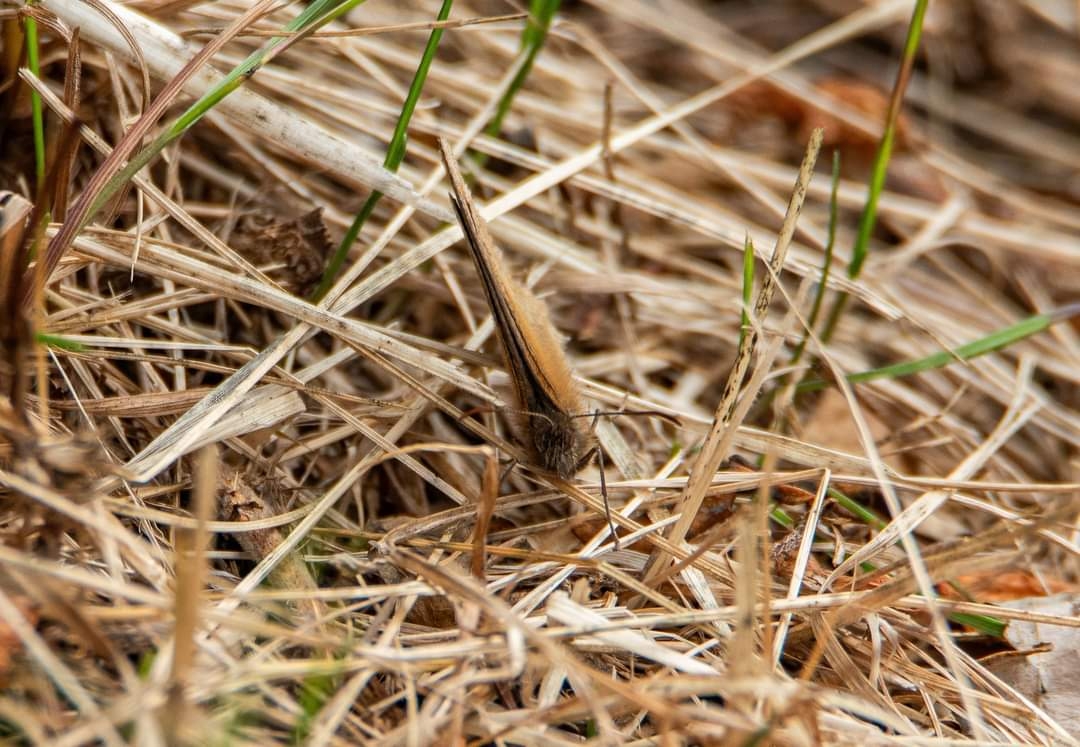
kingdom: Animalia
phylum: Arthropoda
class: Insecta
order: Lepidoptera
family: Nymphalidae
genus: Maniola
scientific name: Maniola jurtina
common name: Græsrandøje
